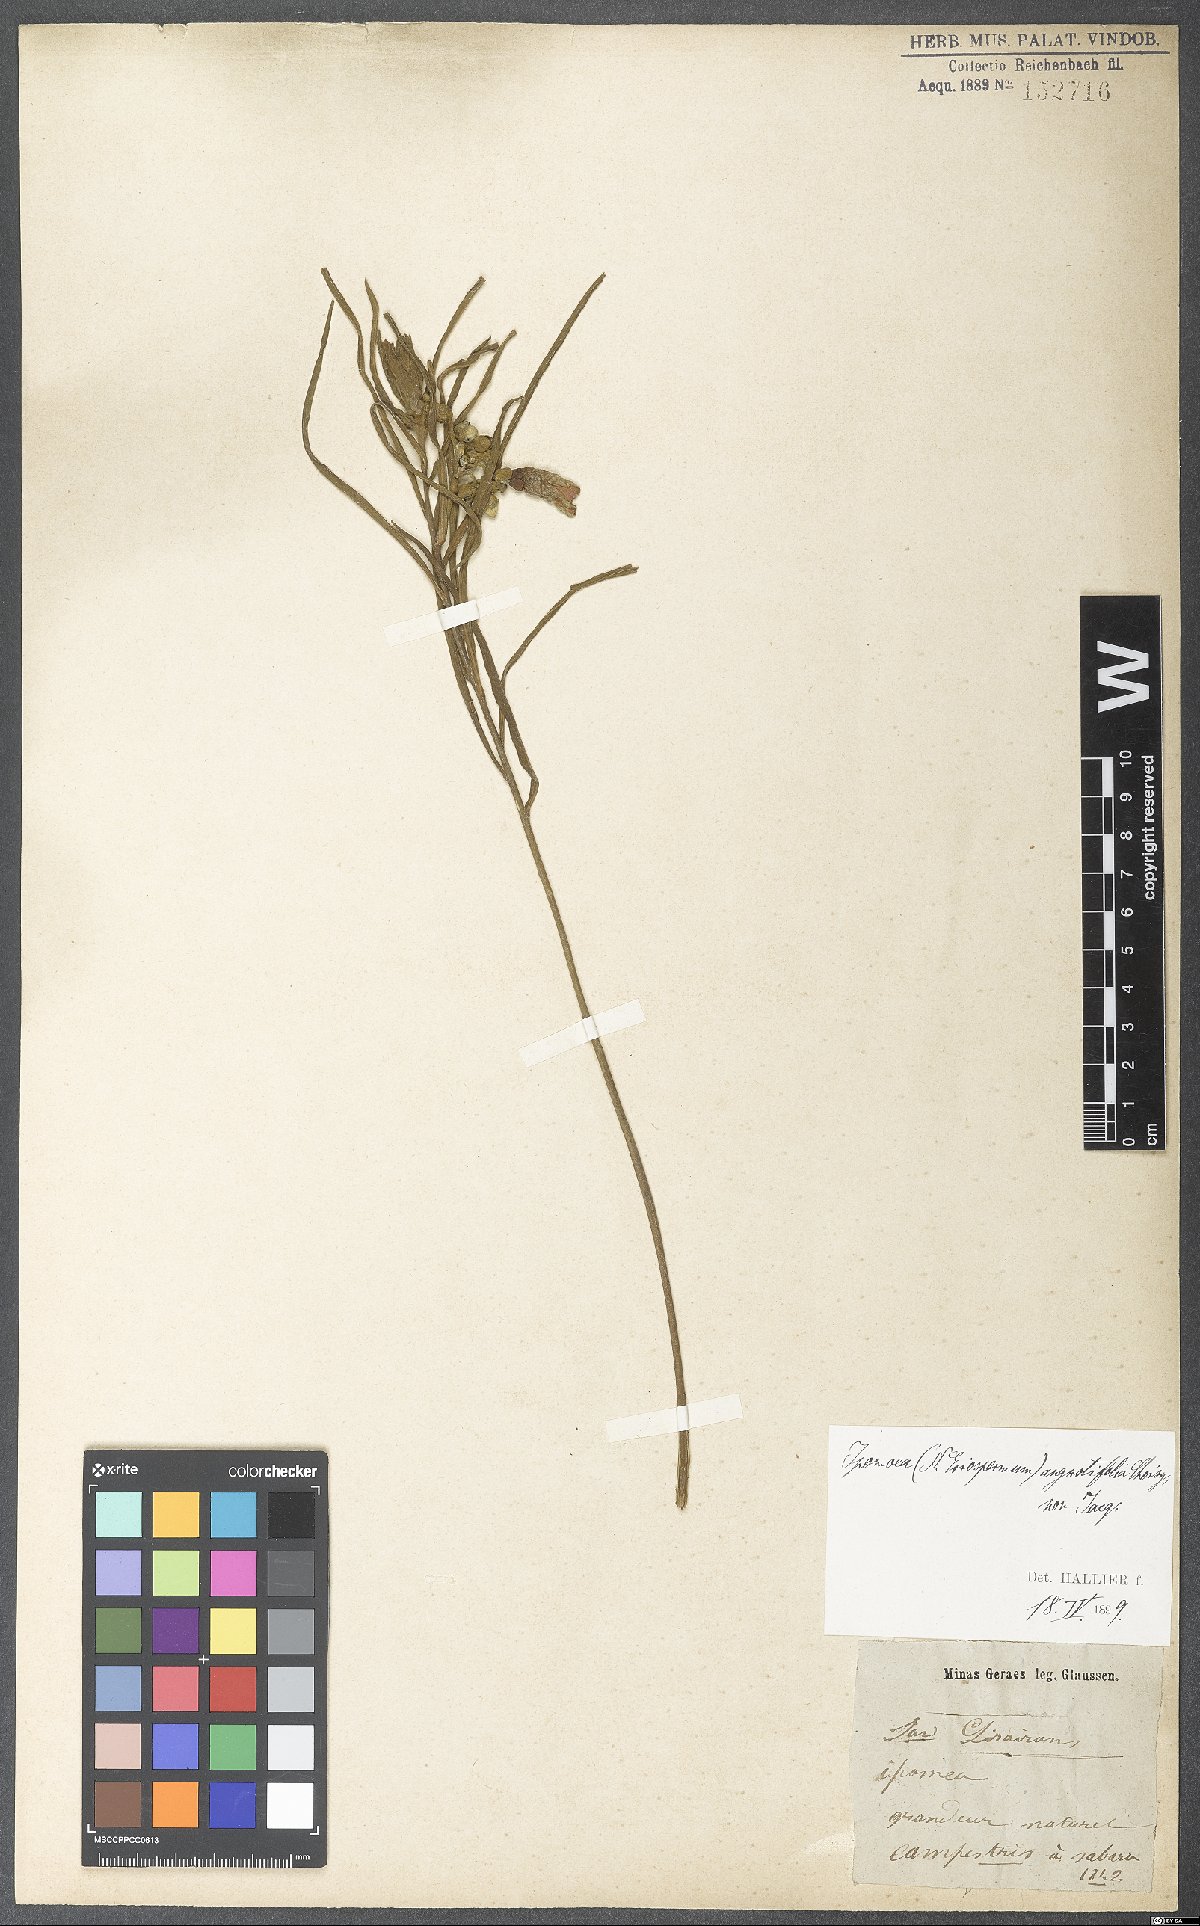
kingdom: Plantae
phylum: Tracheophyta
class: Magnoliopsida
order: Solanales
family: Convolvulaceae
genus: Xenostegia
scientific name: Xenostegia tridentata
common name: African morningvine
